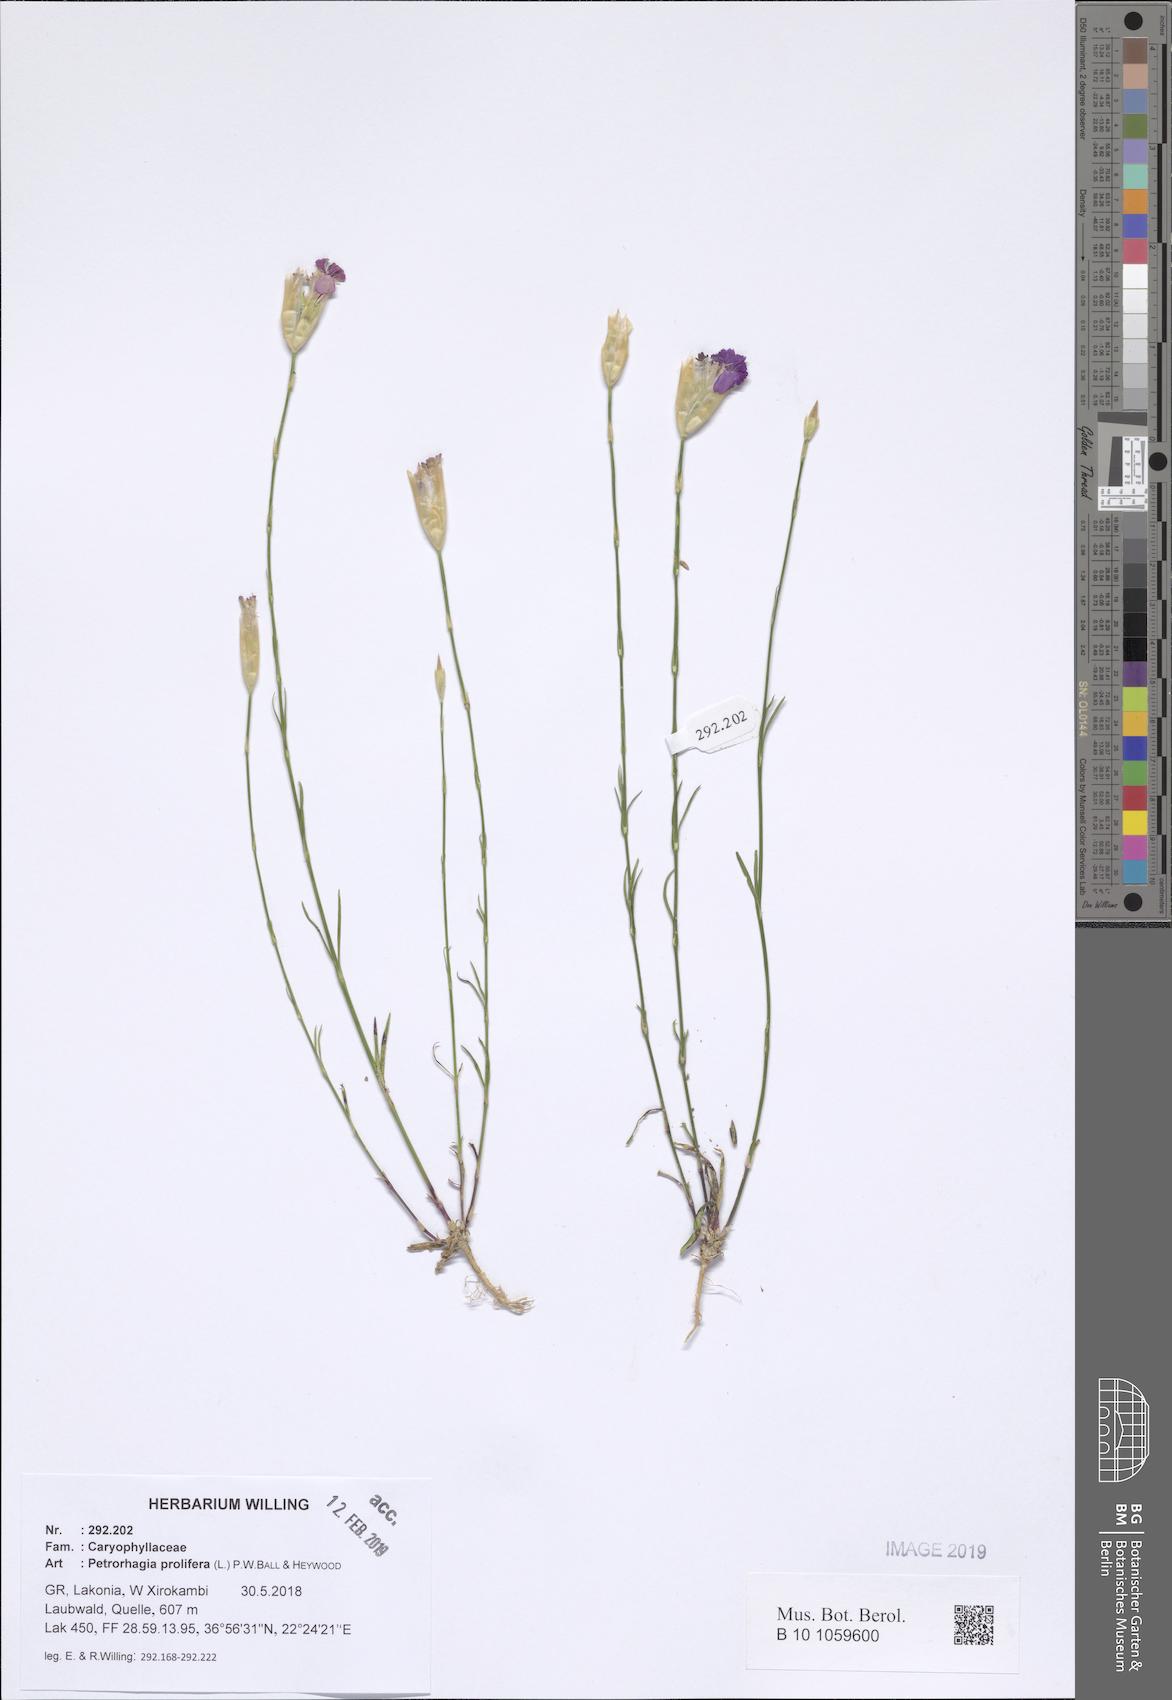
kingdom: Plantae
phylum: Tracheophyta
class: Magnoliopsida
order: Caryophyllales
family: Caryophyllaceae
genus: Petrorhagia
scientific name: Petrorhagia prolifera
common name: Proliferous pink
